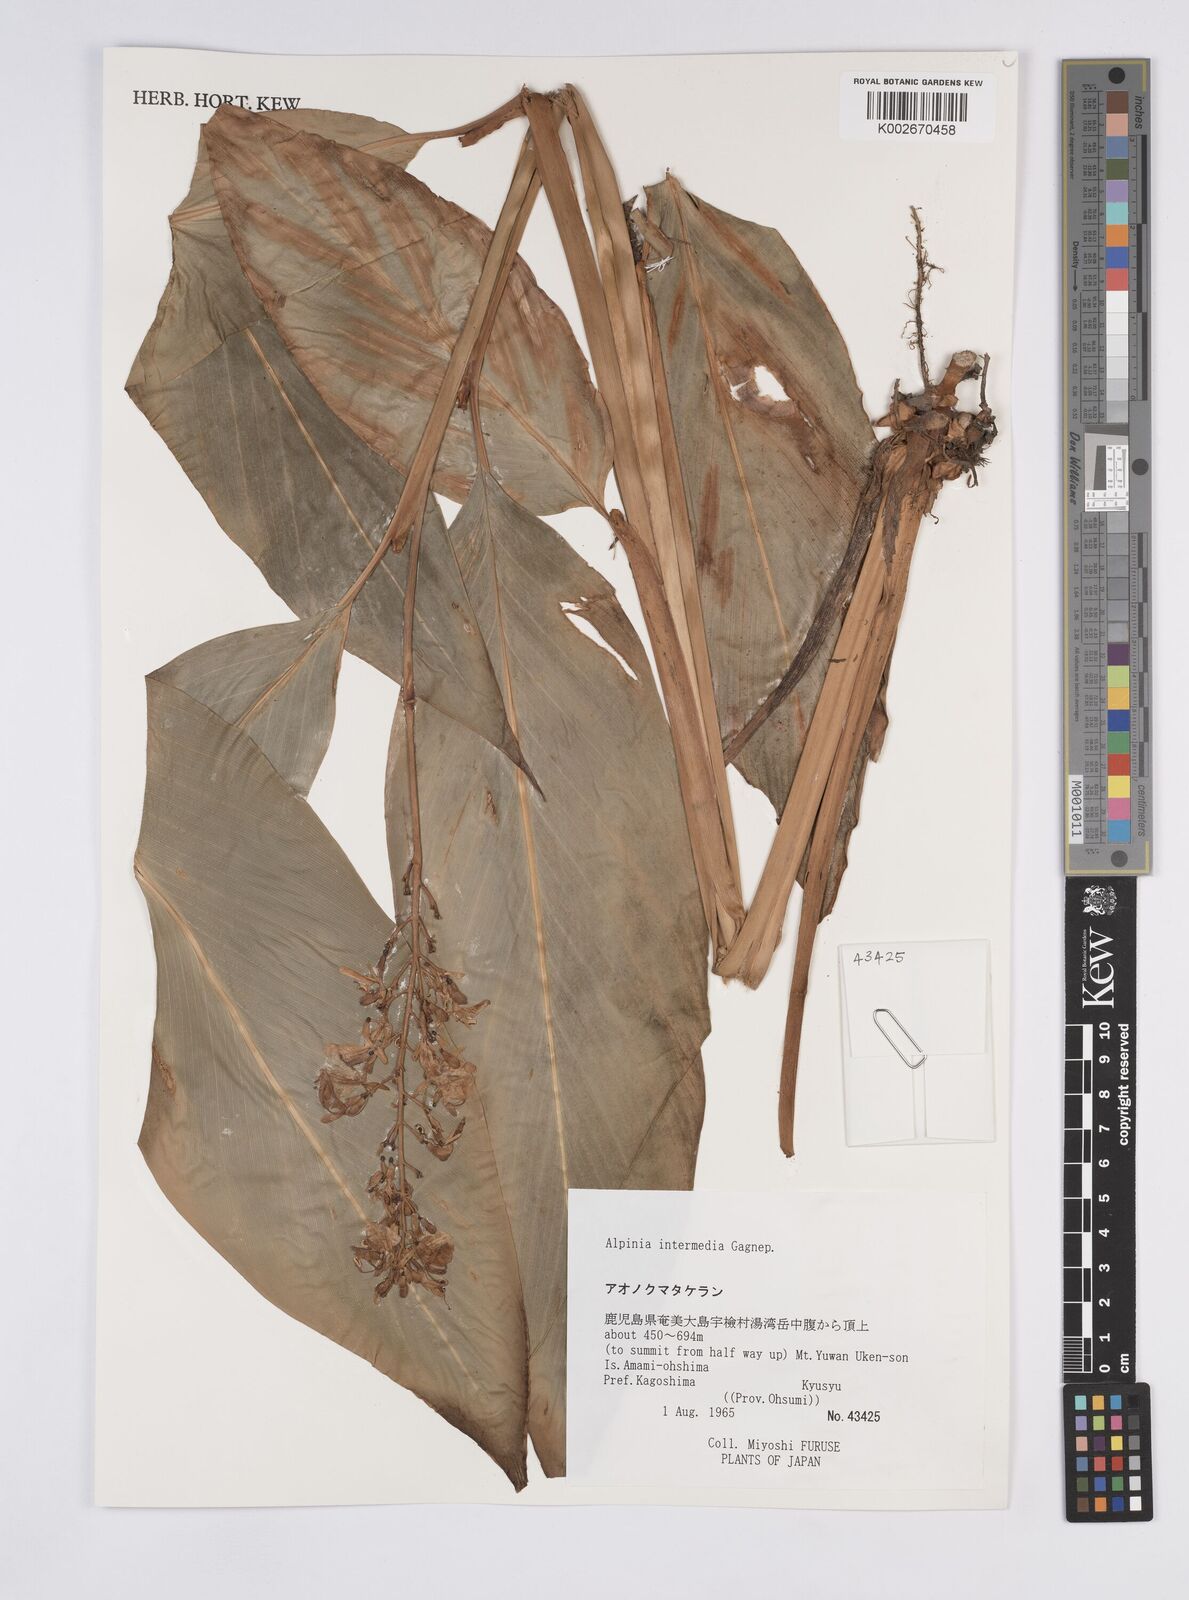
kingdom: Plantae
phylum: Tracheophyta
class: Liliopsida
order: Zingiberales
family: Zingiberaceae
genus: Alpinia
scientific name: Alpinia intermedia
